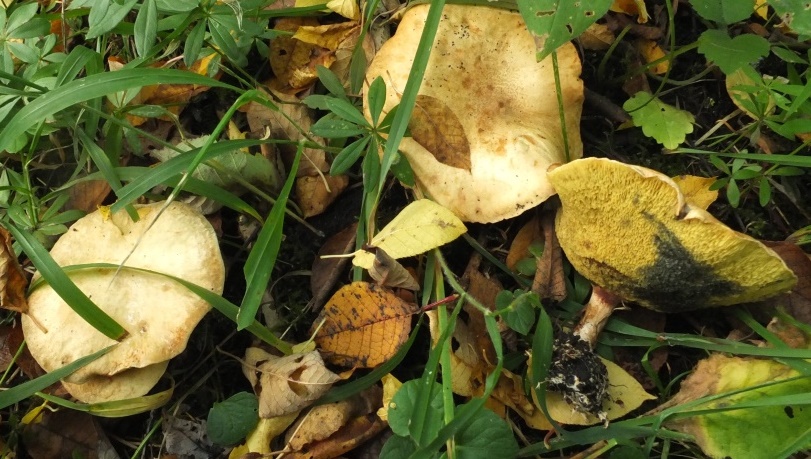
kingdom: Fungi
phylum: Basidiomycota
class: Agaricomycetes
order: Boletales
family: Paxillaceae
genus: Gyrodon
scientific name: Gyrodon lividus
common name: ellerørhat
